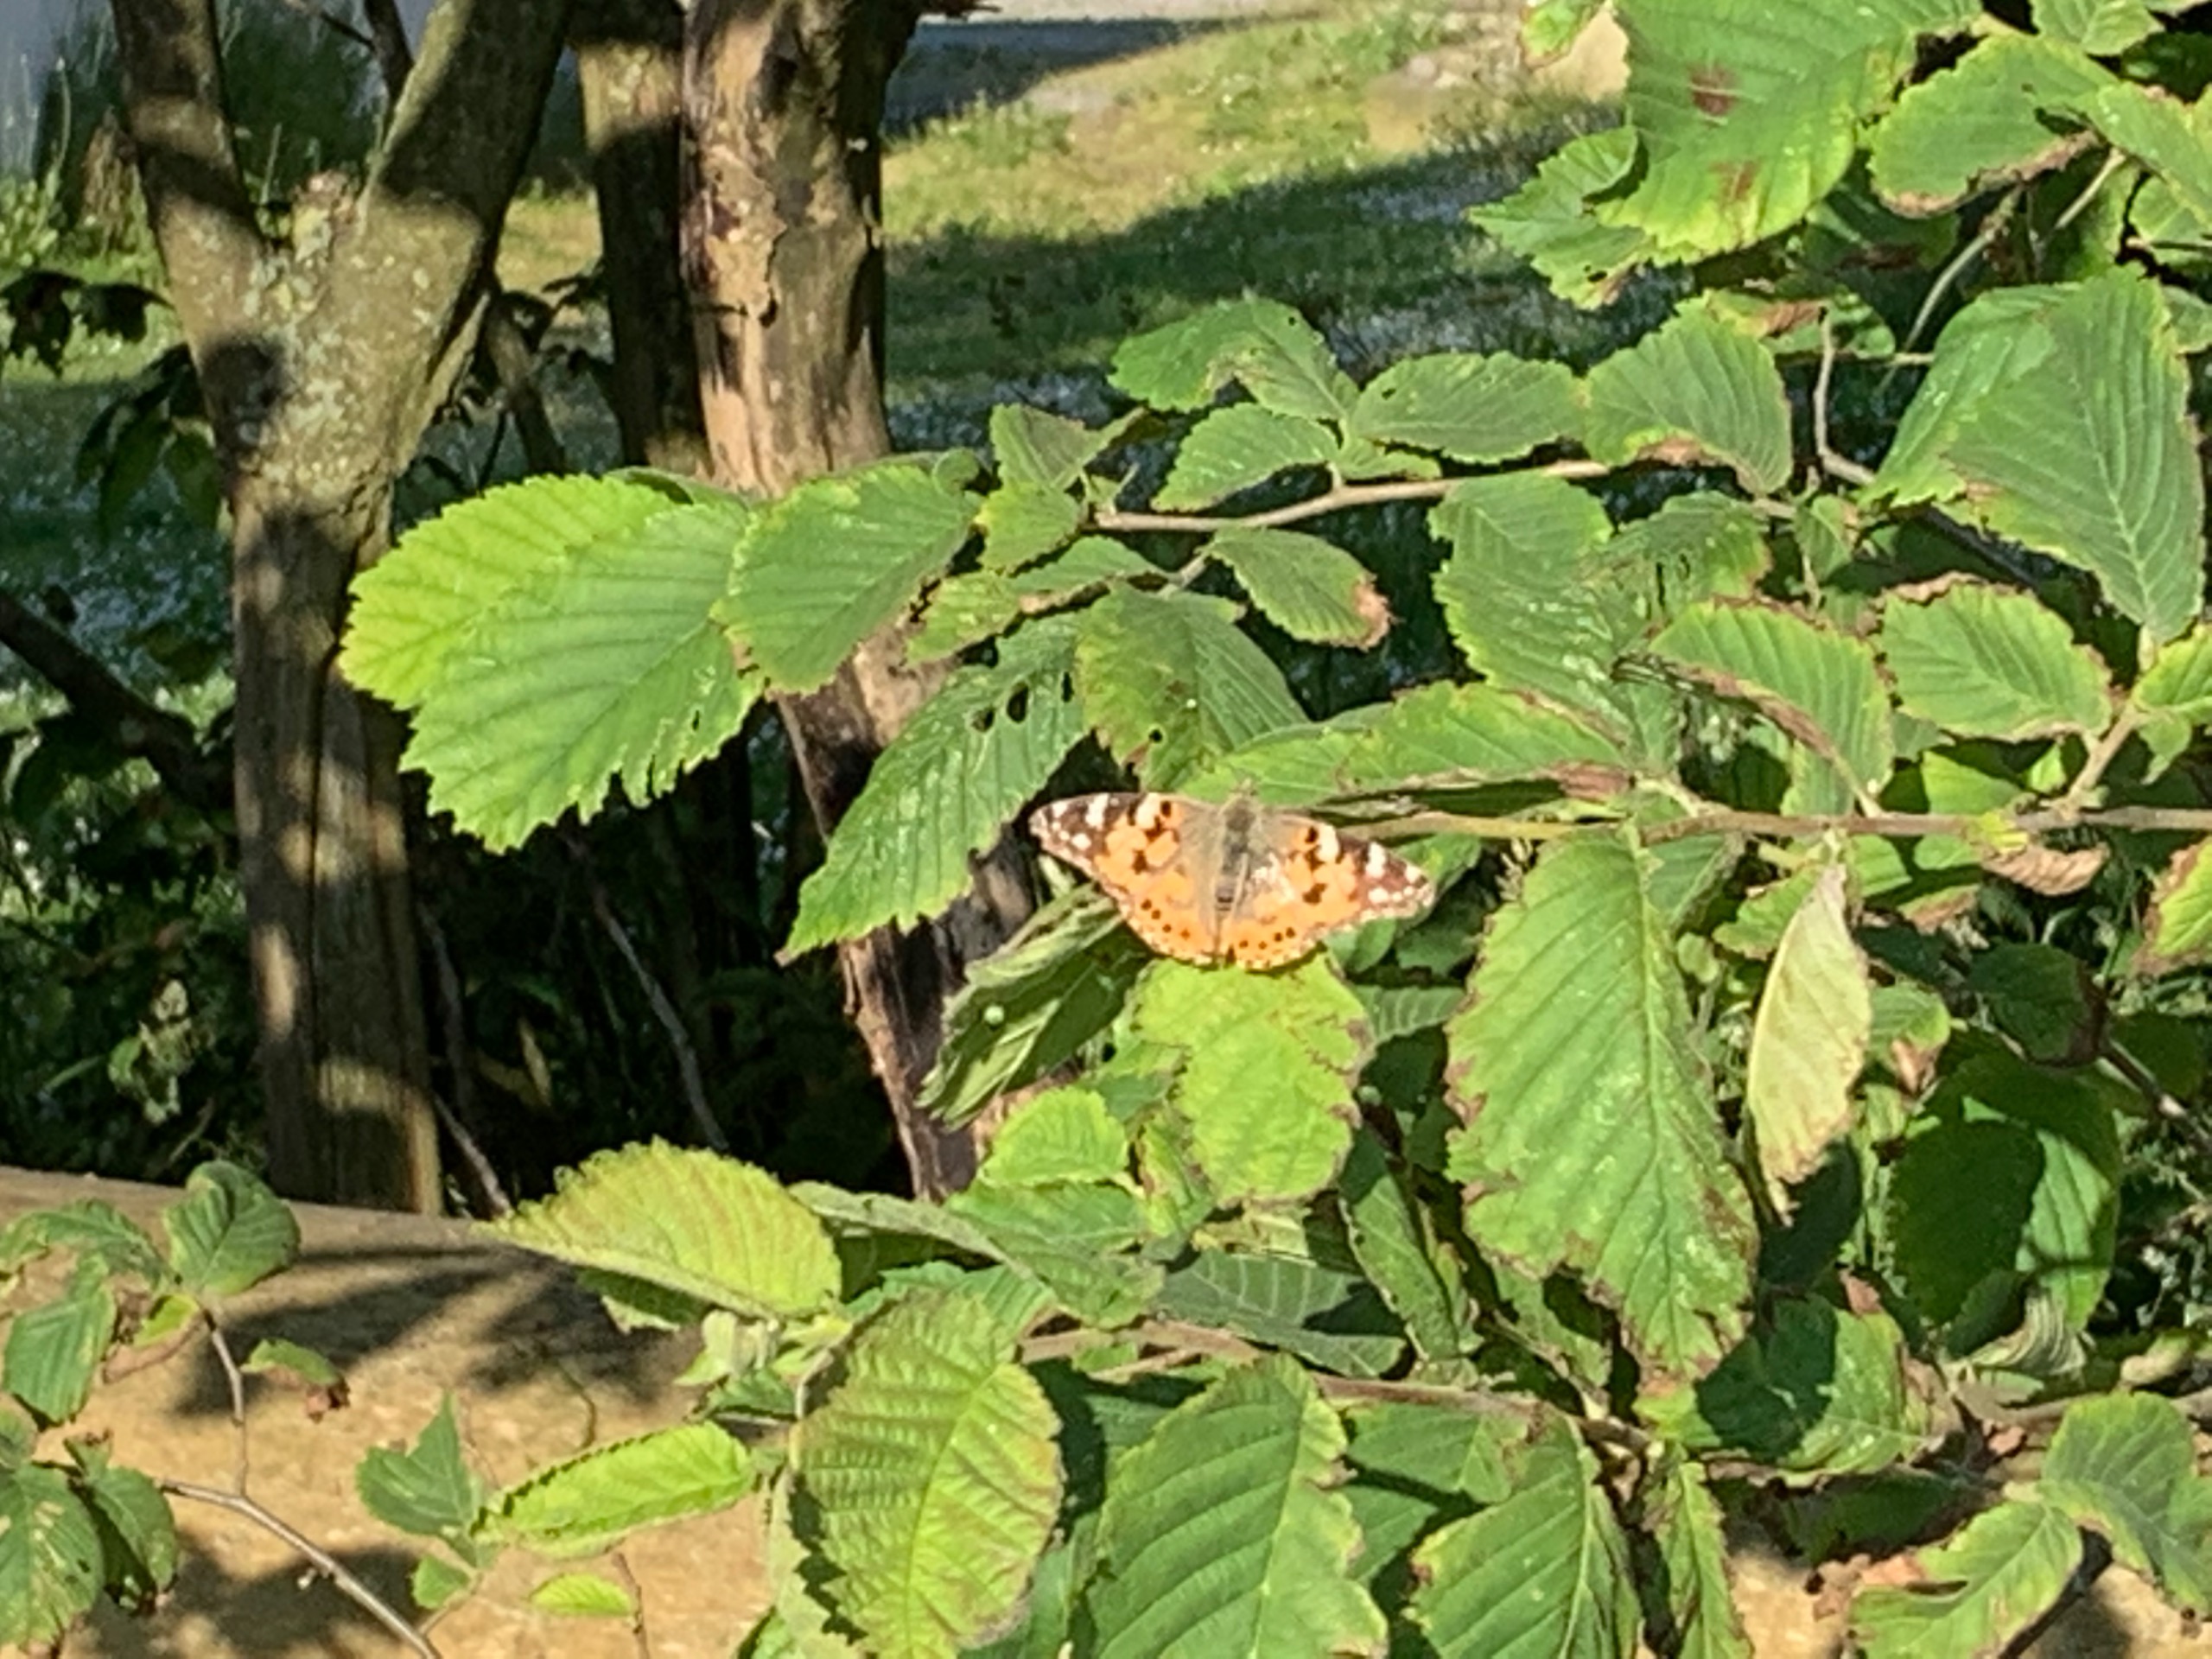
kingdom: Animalia
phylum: Arthropoda
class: Insecta
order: Lepidoptera
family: Nymphalidae
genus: Vanessa
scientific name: Vanessa cardui
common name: Tidselsommerfugl
